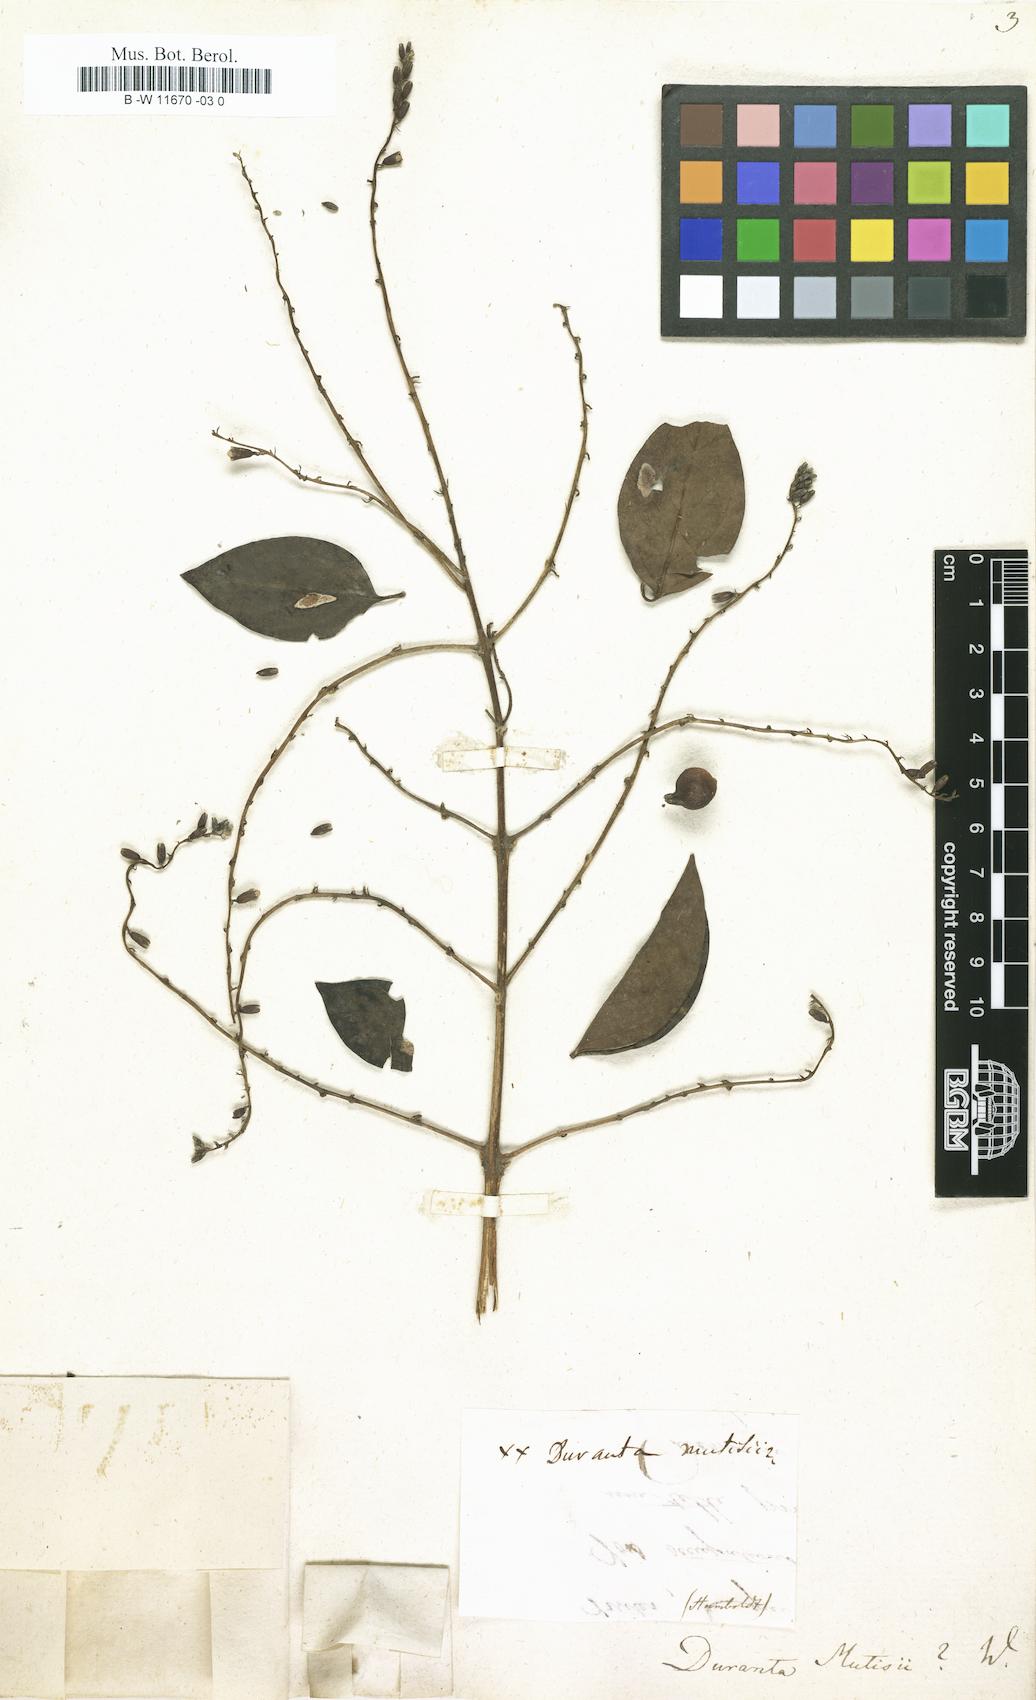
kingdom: Plantae
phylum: Tracheophyta
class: Magnoliopsida
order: Lamiales
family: Verbenaceae
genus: Duranta
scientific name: Duranta mutisii
